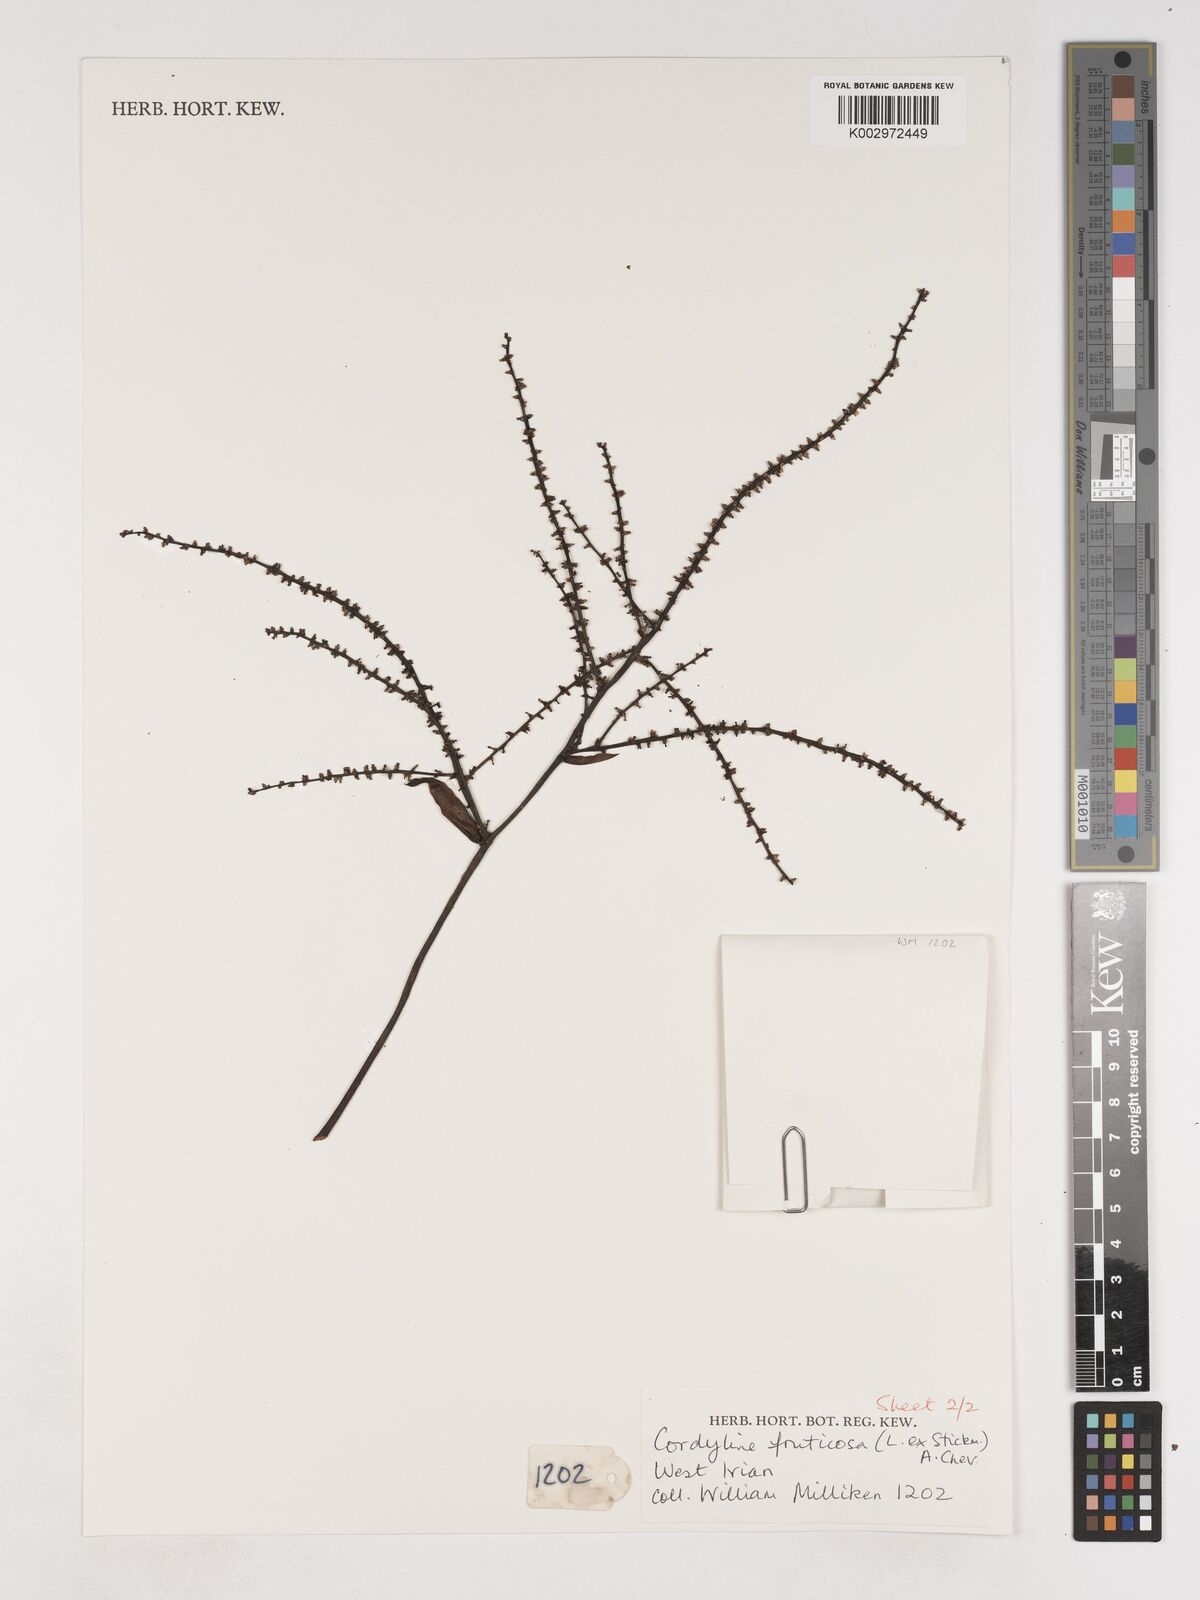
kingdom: Plantae
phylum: Tracheophyta
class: Liliopsida
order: Asparagales
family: Asparagaceae
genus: Cordyline
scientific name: Cordyline fruticosa
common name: Good-luck-plant
